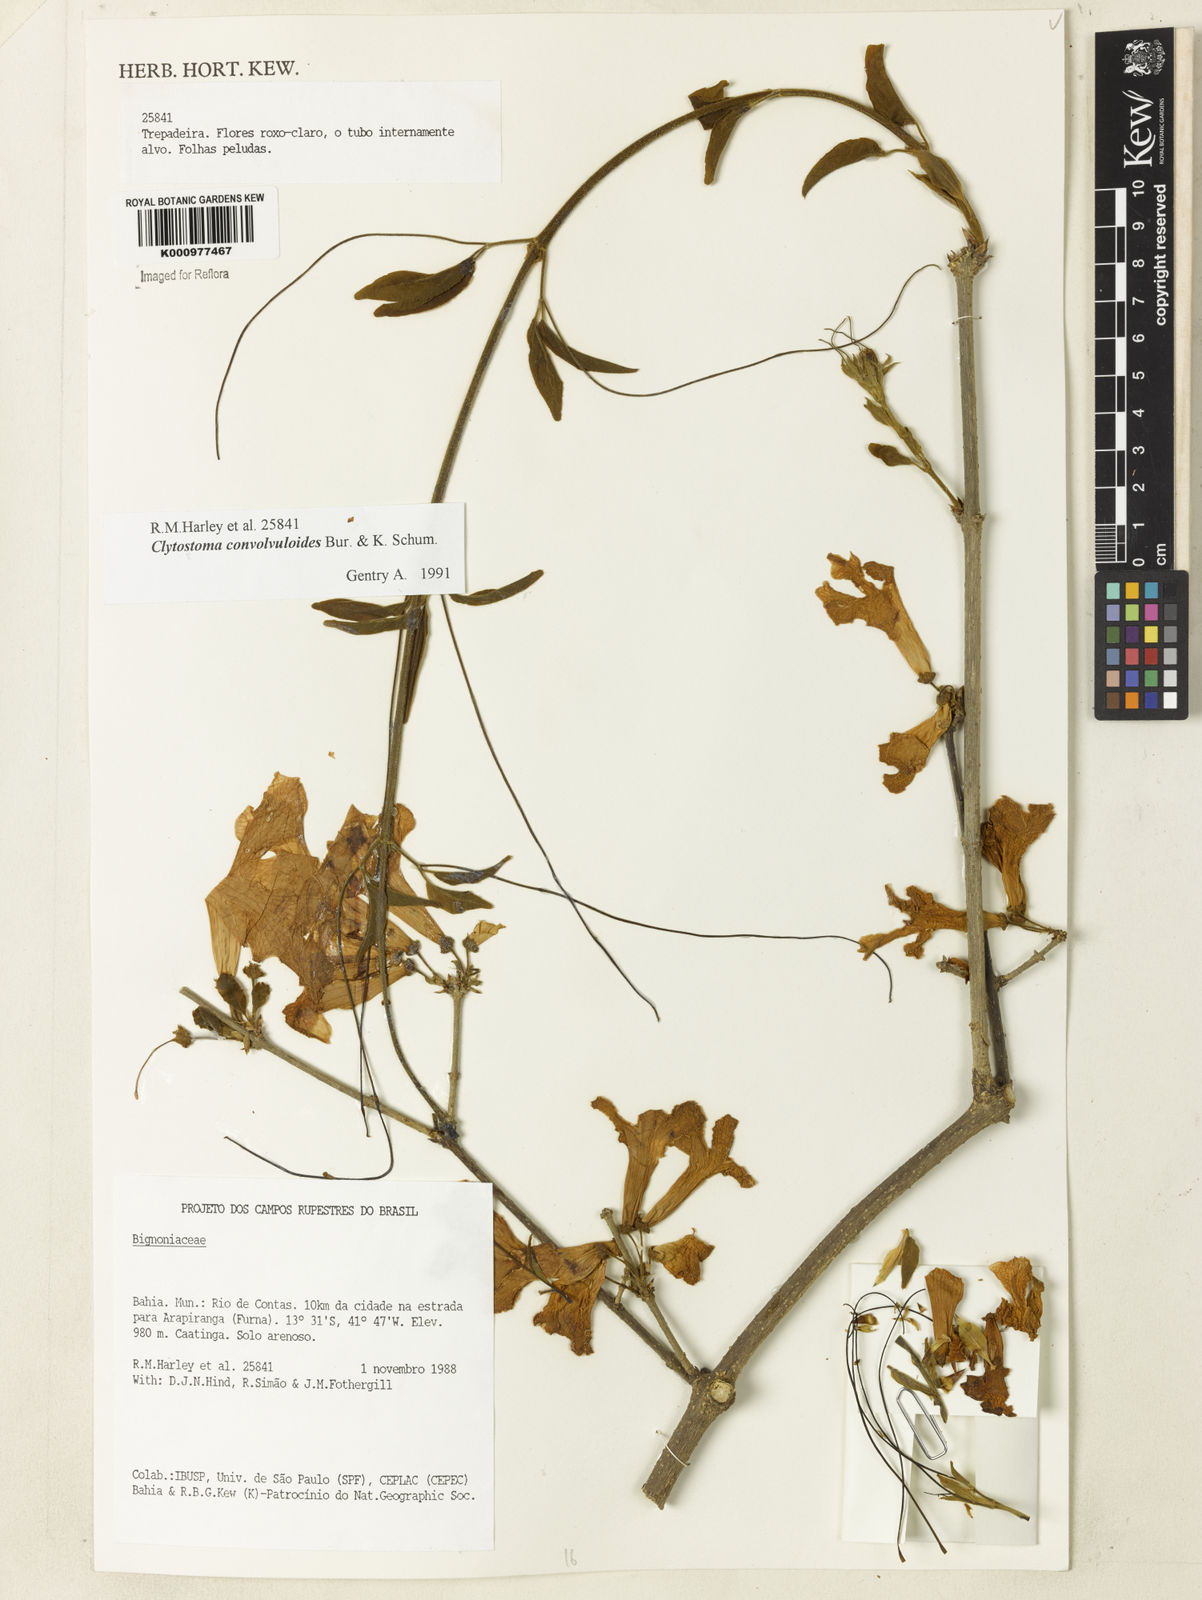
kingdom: Plantae
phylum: Tracheophyta
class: Magnoliopsida
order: Lamiales
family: Bignoniaceae
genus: Bignonia
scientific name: Bignonia convolvuloides
